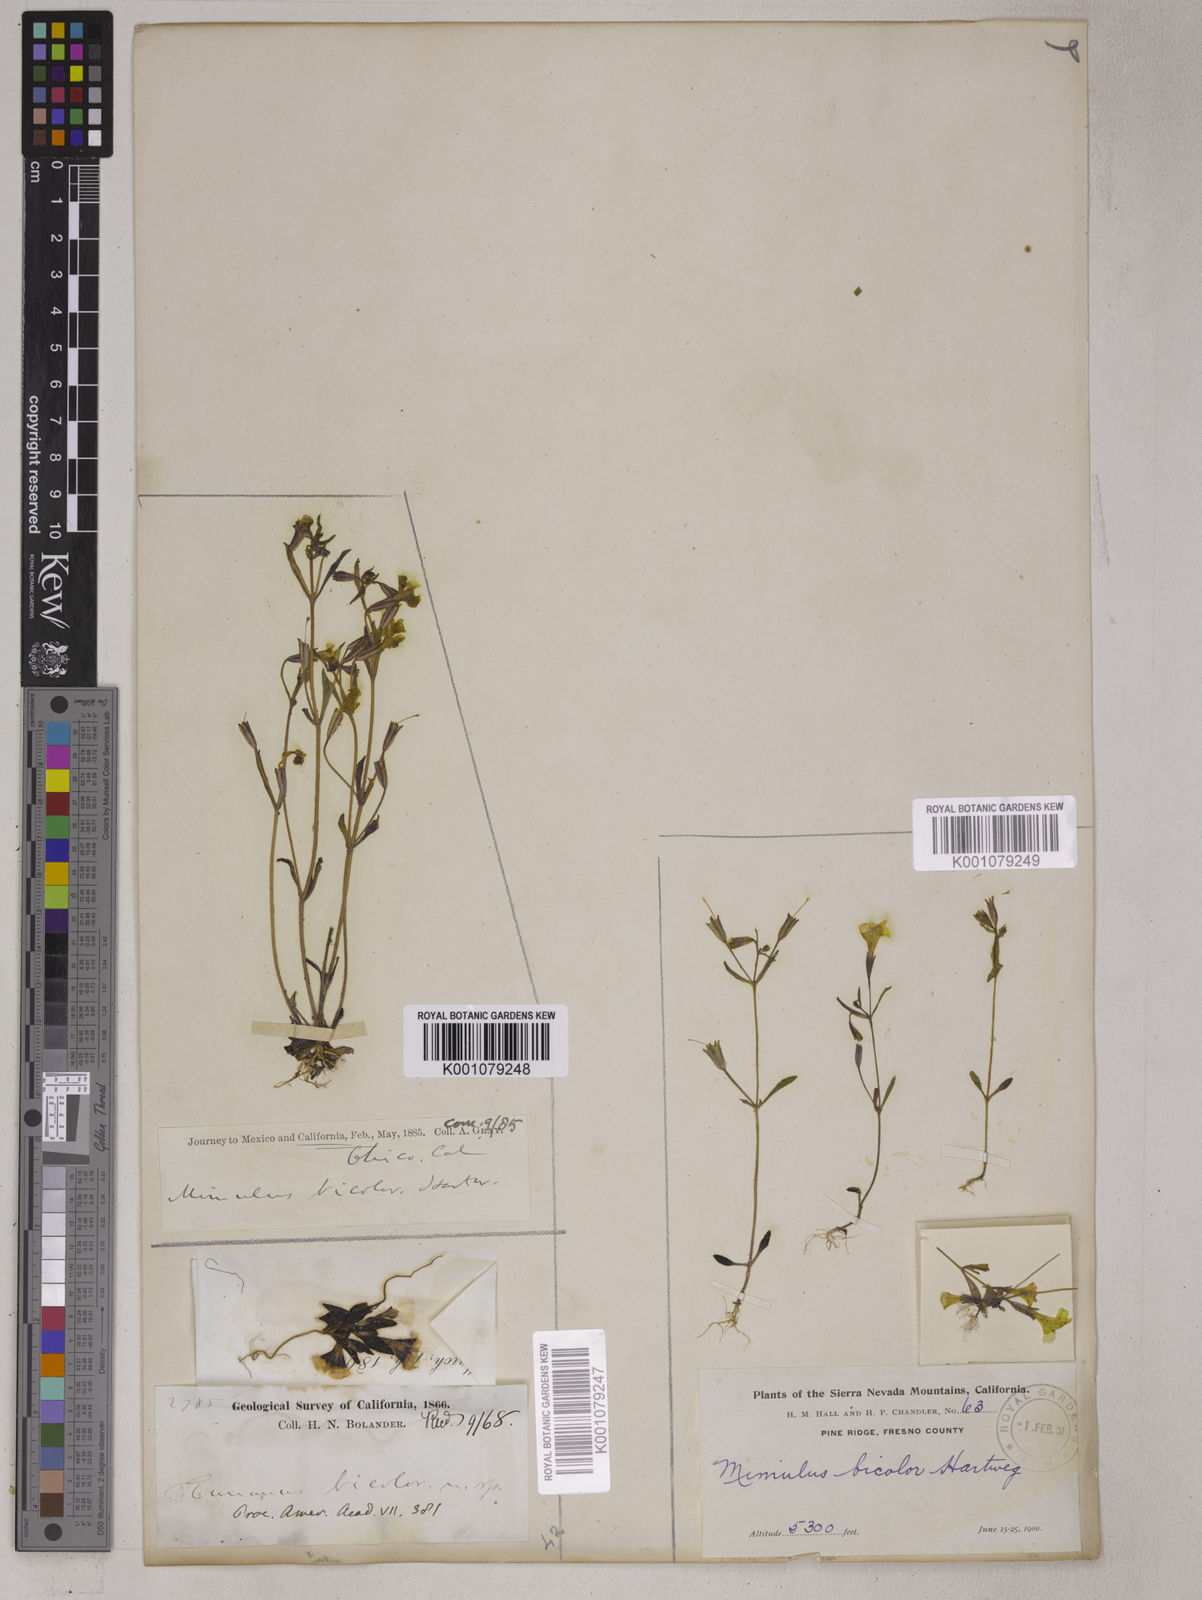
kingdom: Plantae
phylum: Tracheophyta
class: Magnoliopsida
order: Lamiales
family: Phrymaceae
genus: Erythranthe
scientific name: Erythranthe bicolor
